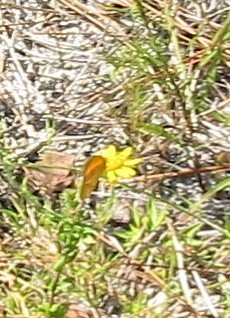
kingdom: Animalia
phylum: Arthropoda
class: Insecta
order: Lepidoptera
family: Pieridae
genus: Abaeis
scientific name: Abaeis nicippe
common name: Sleepy Orange
